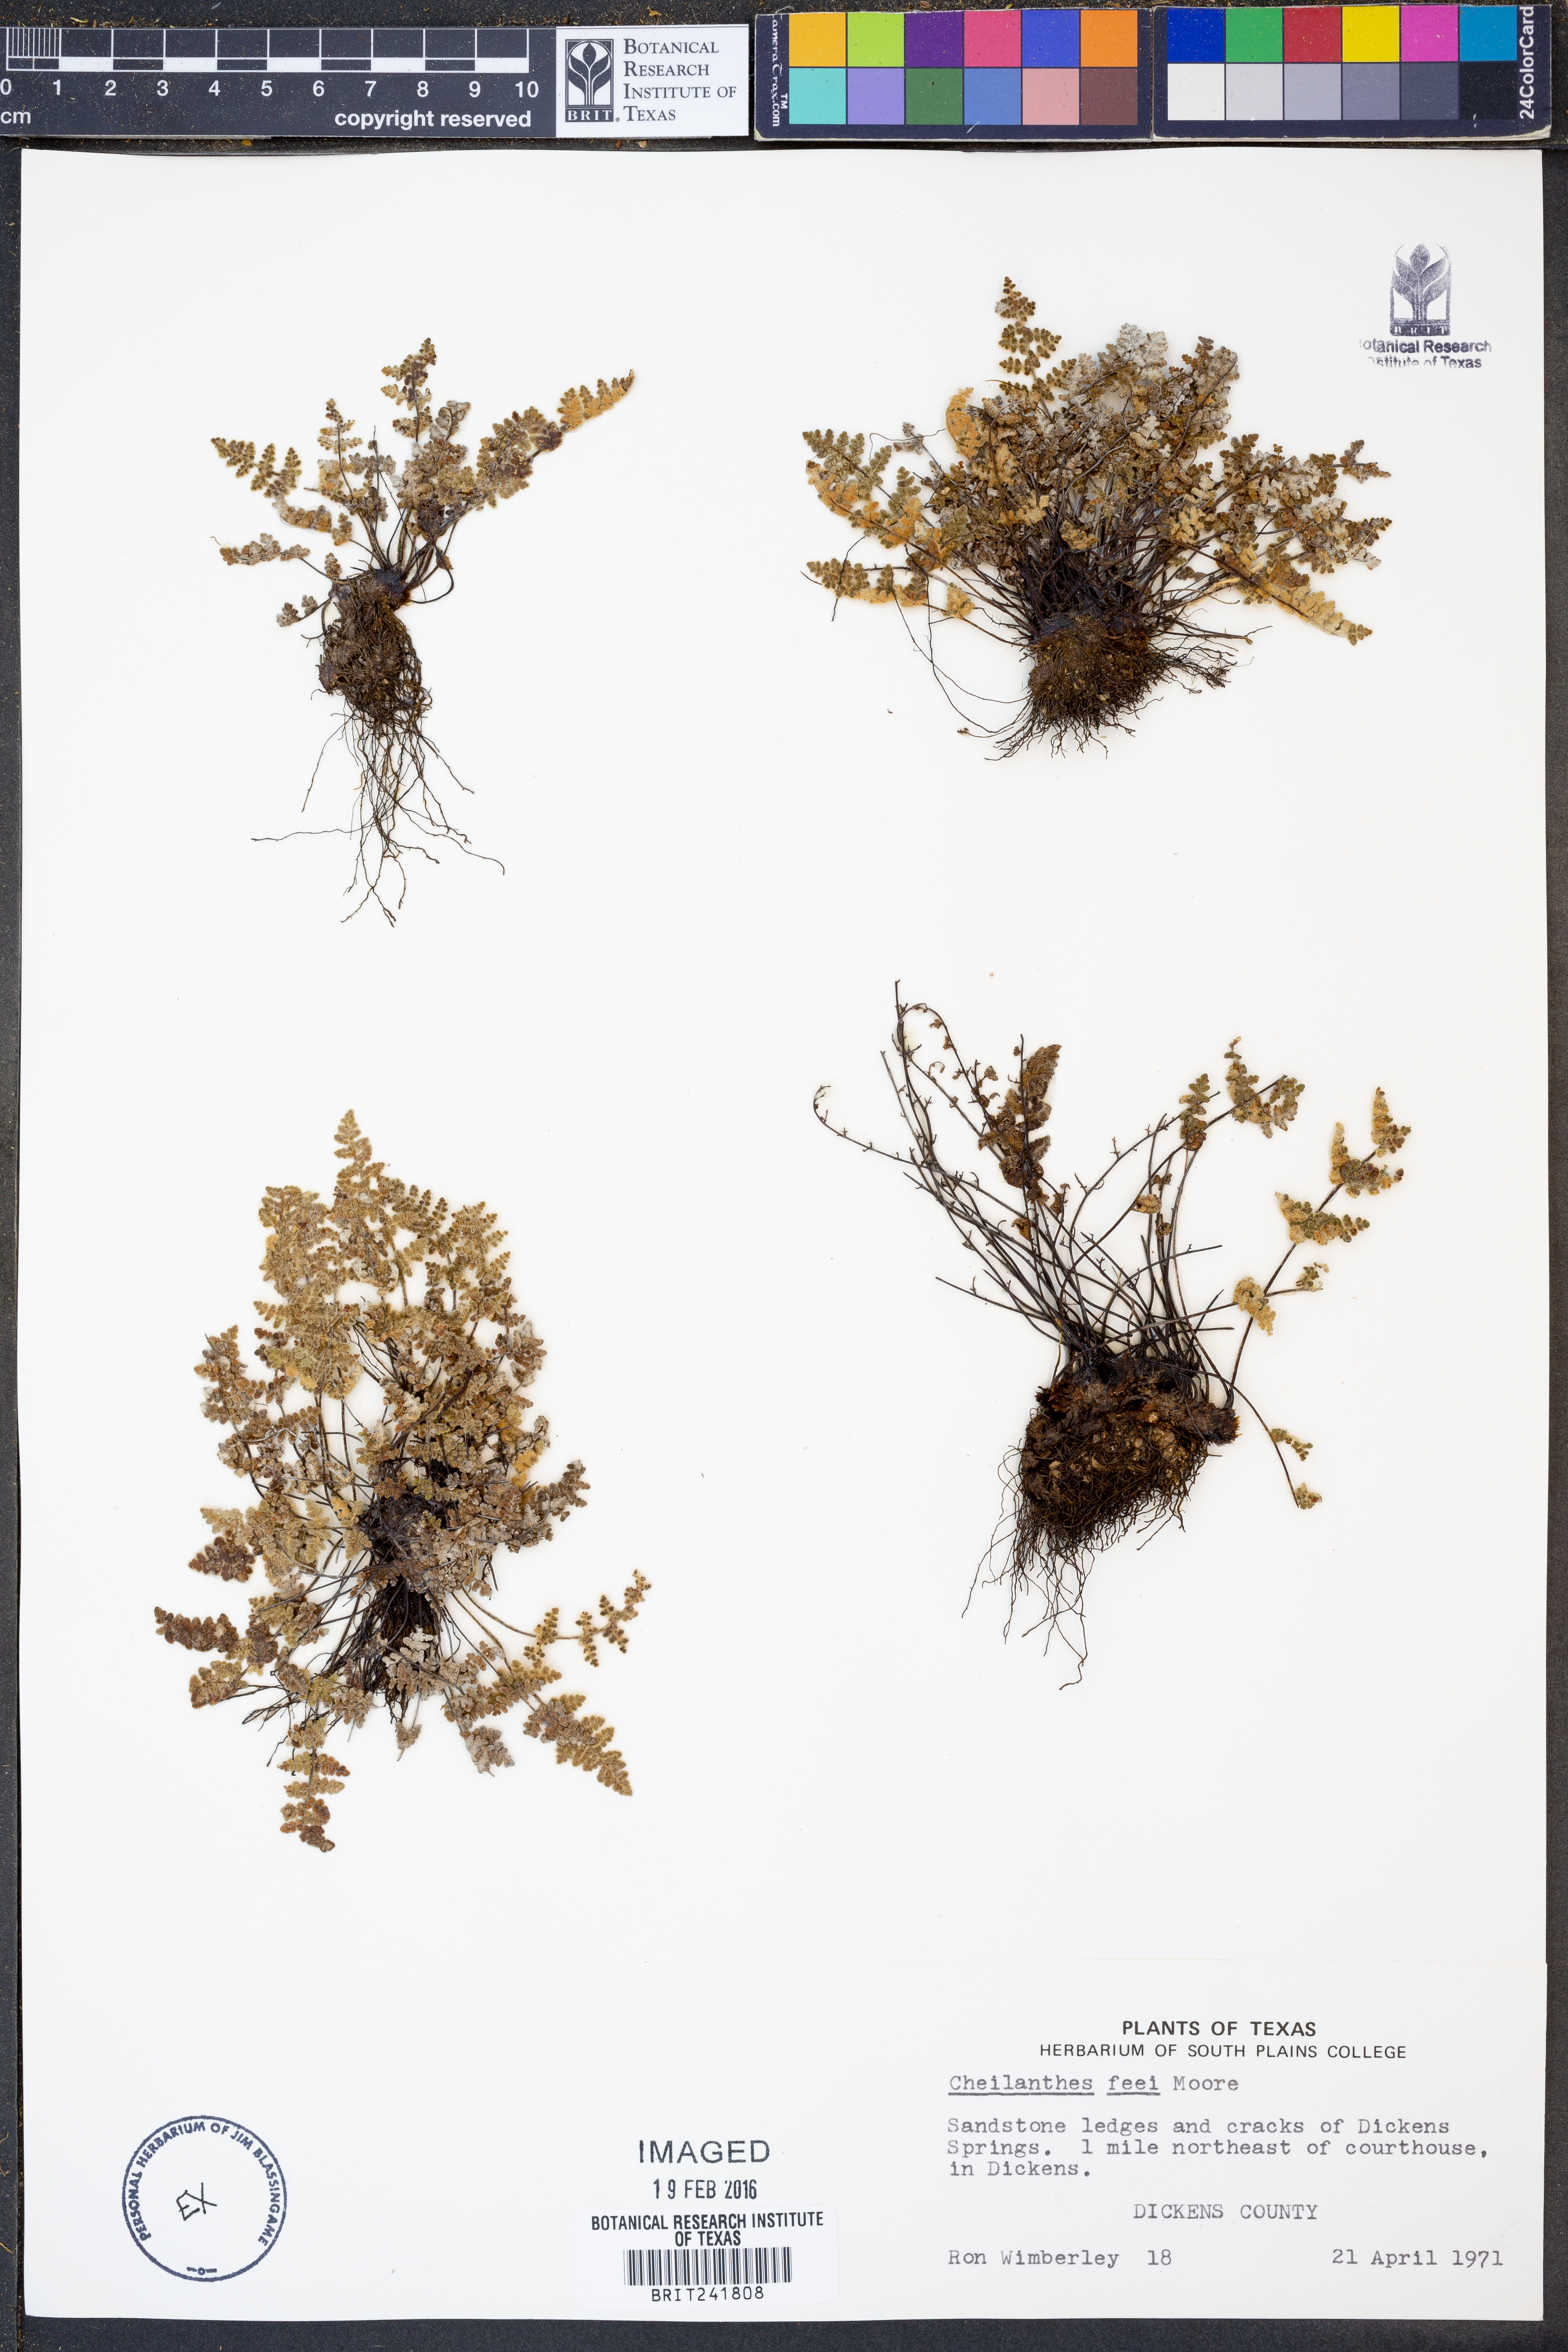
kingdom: Plantae
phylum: Tracheophyta
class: Polypodiopsida
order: Polypodiales
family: Pteridaceae
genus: Myriopteris
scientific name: Myriopteris gracilis
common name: Fee's lip fern
